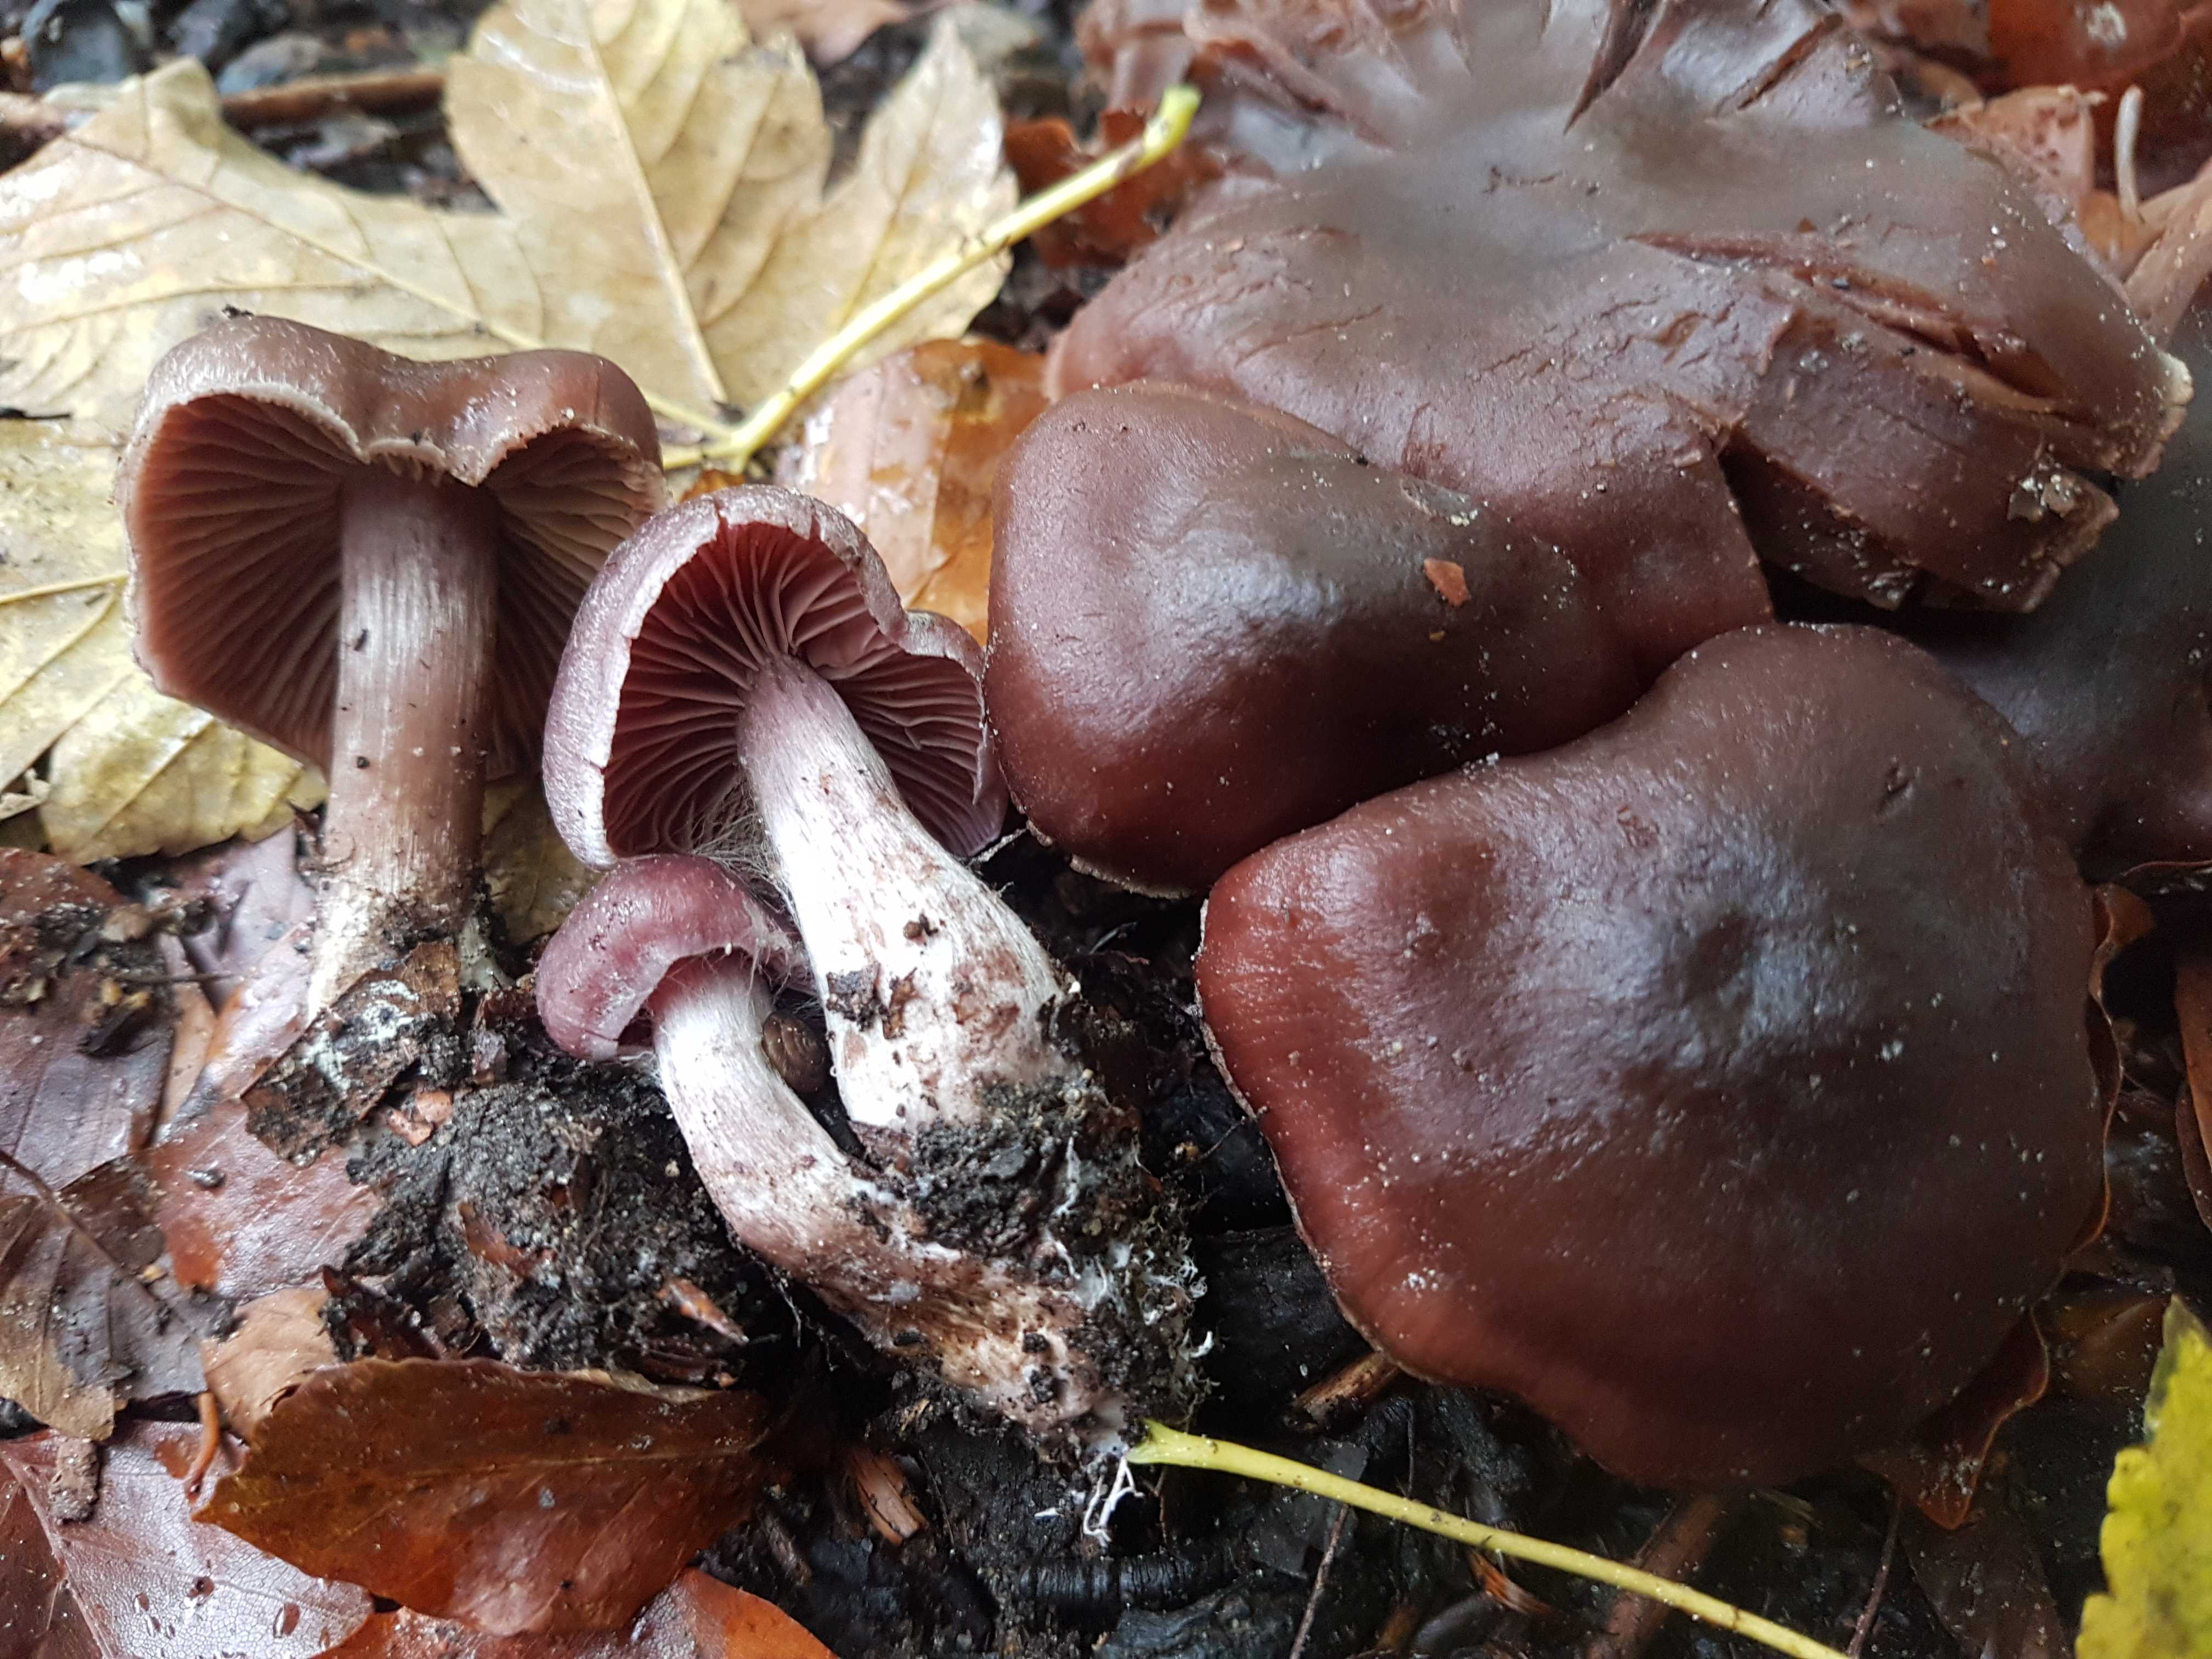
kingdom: Fungi
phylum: Basidiomycota
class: Agaricomycetes
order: Agaricales
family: Cortinariaceae
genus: Cortinarius
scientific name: Cortinarius
